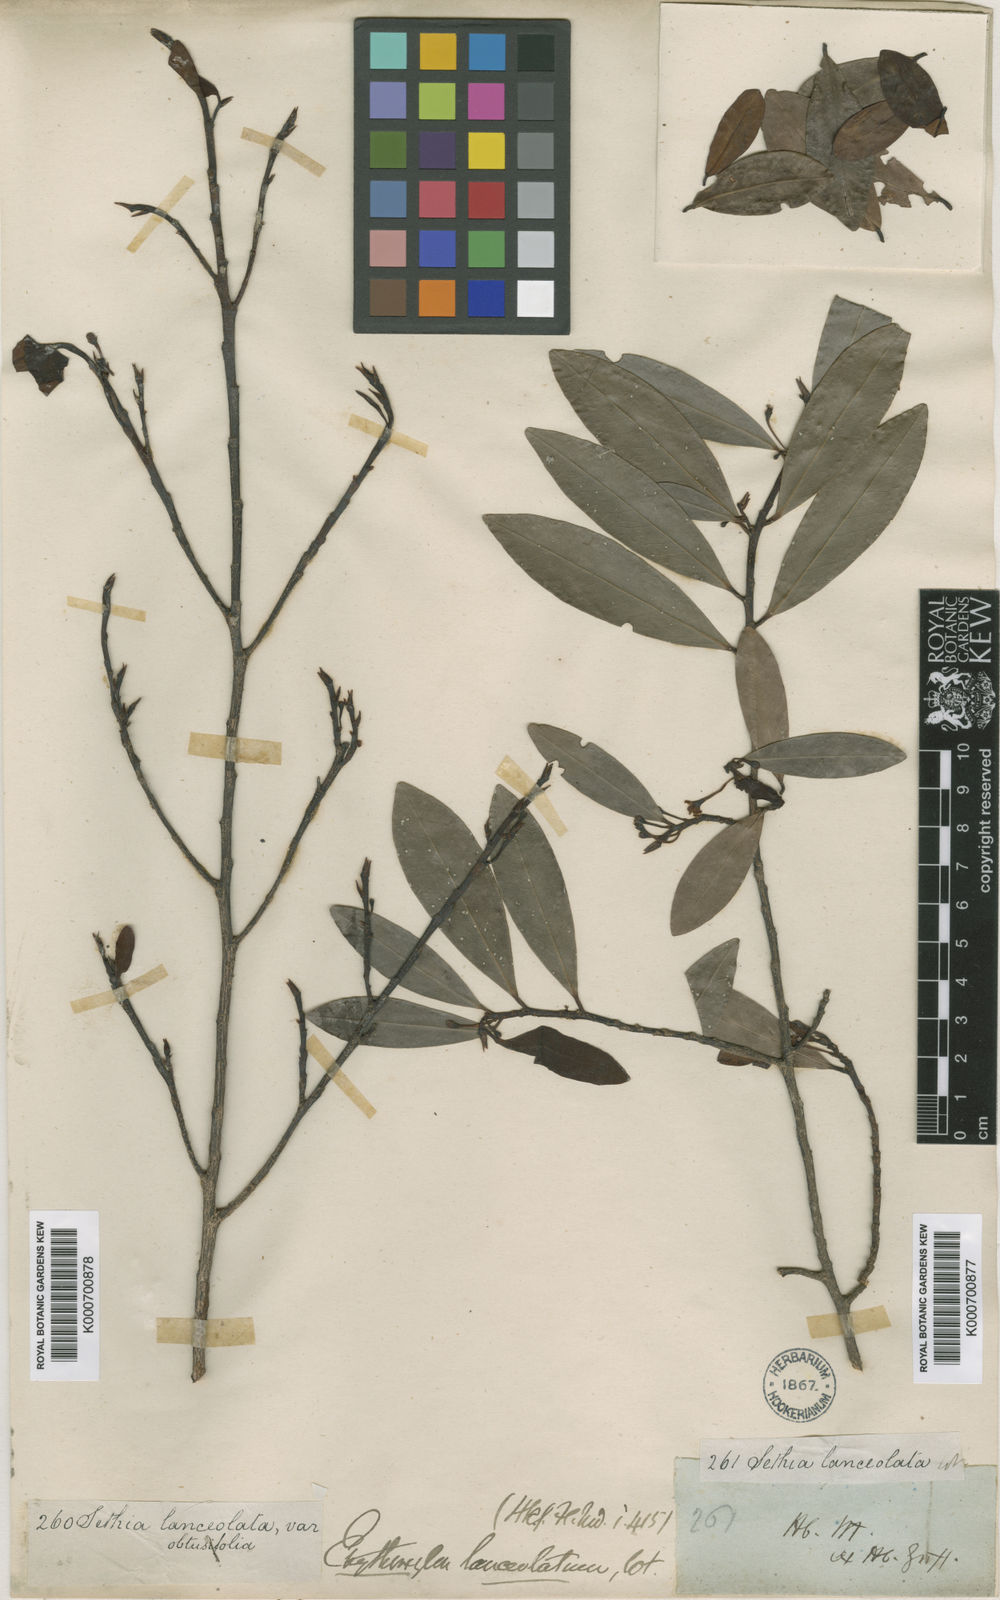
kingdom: Plantae
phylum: Tracheophyta
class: Magnoliopsida
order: Malpighiales
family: Erythroxylaceae
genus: Erythroxylum
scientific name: Erythroxylum obtusifolium
